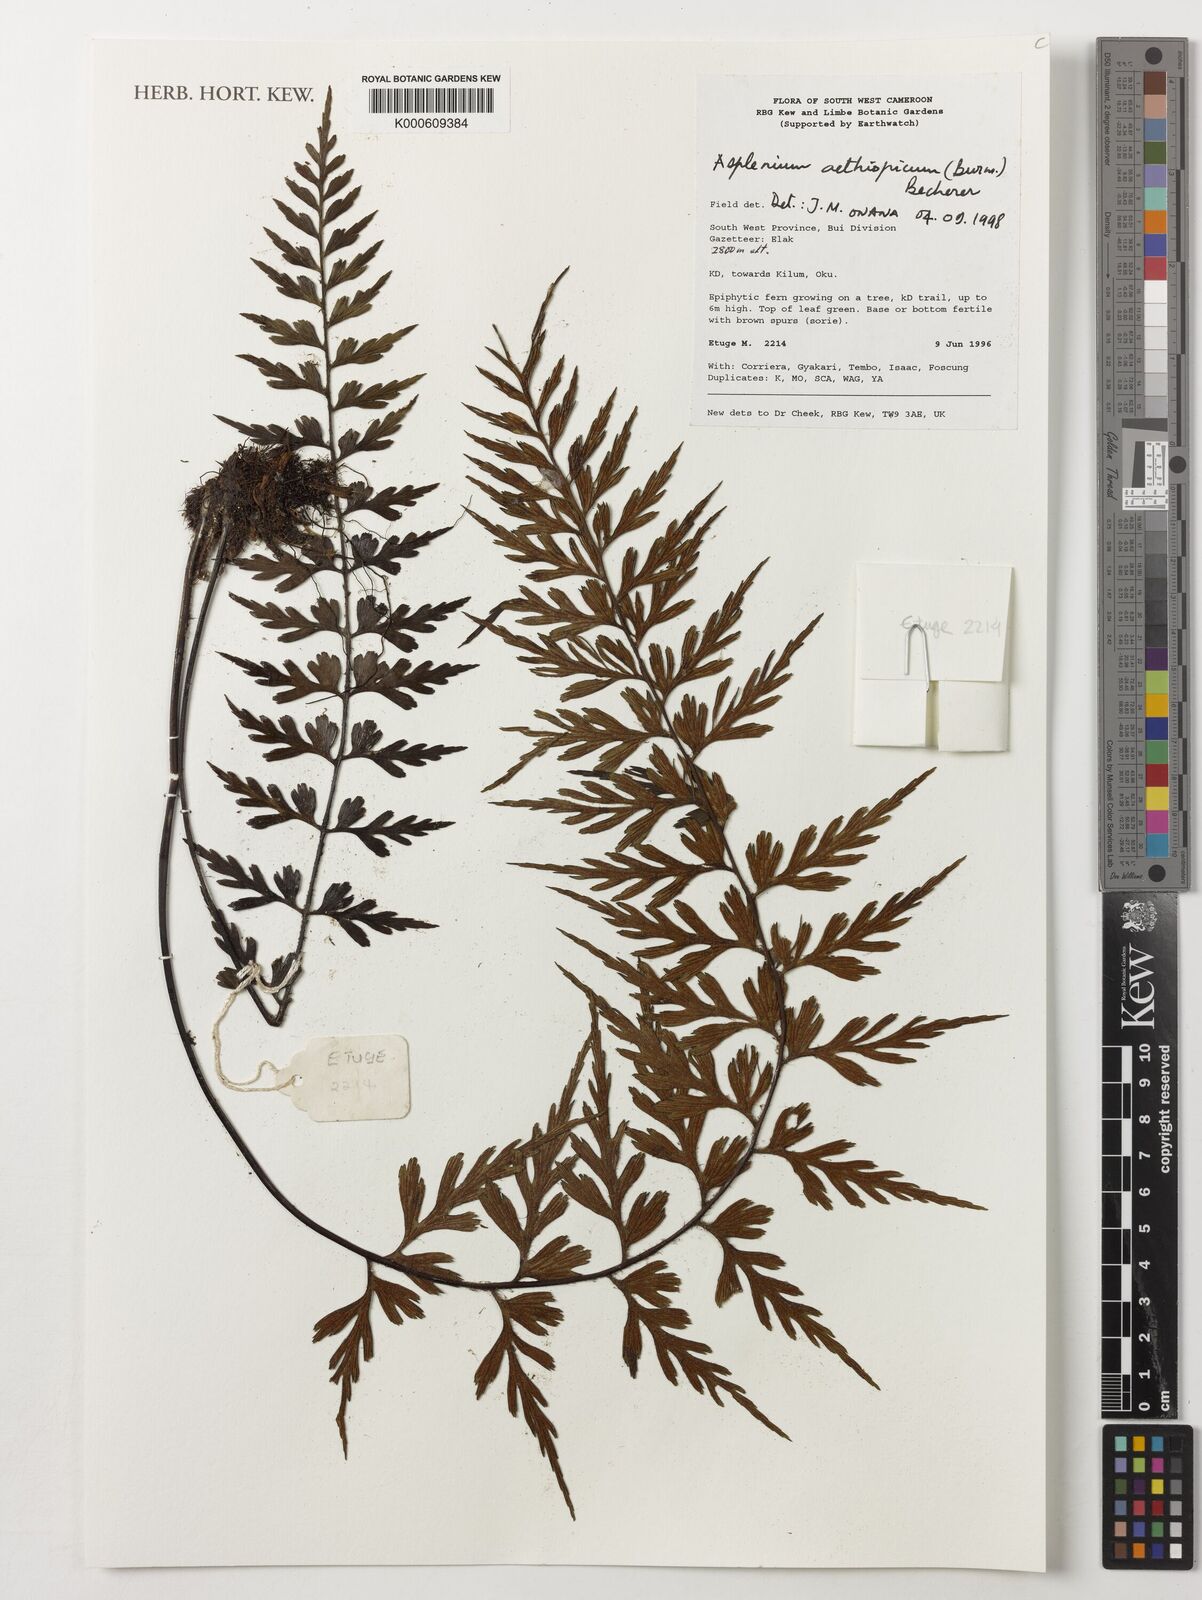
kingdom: Plantae
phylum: Tracheophyta
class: Polypodiopsida
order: Polypodiales
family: Aspleniaceae
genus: Asplenium
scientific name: Asplenium aethiopicum
